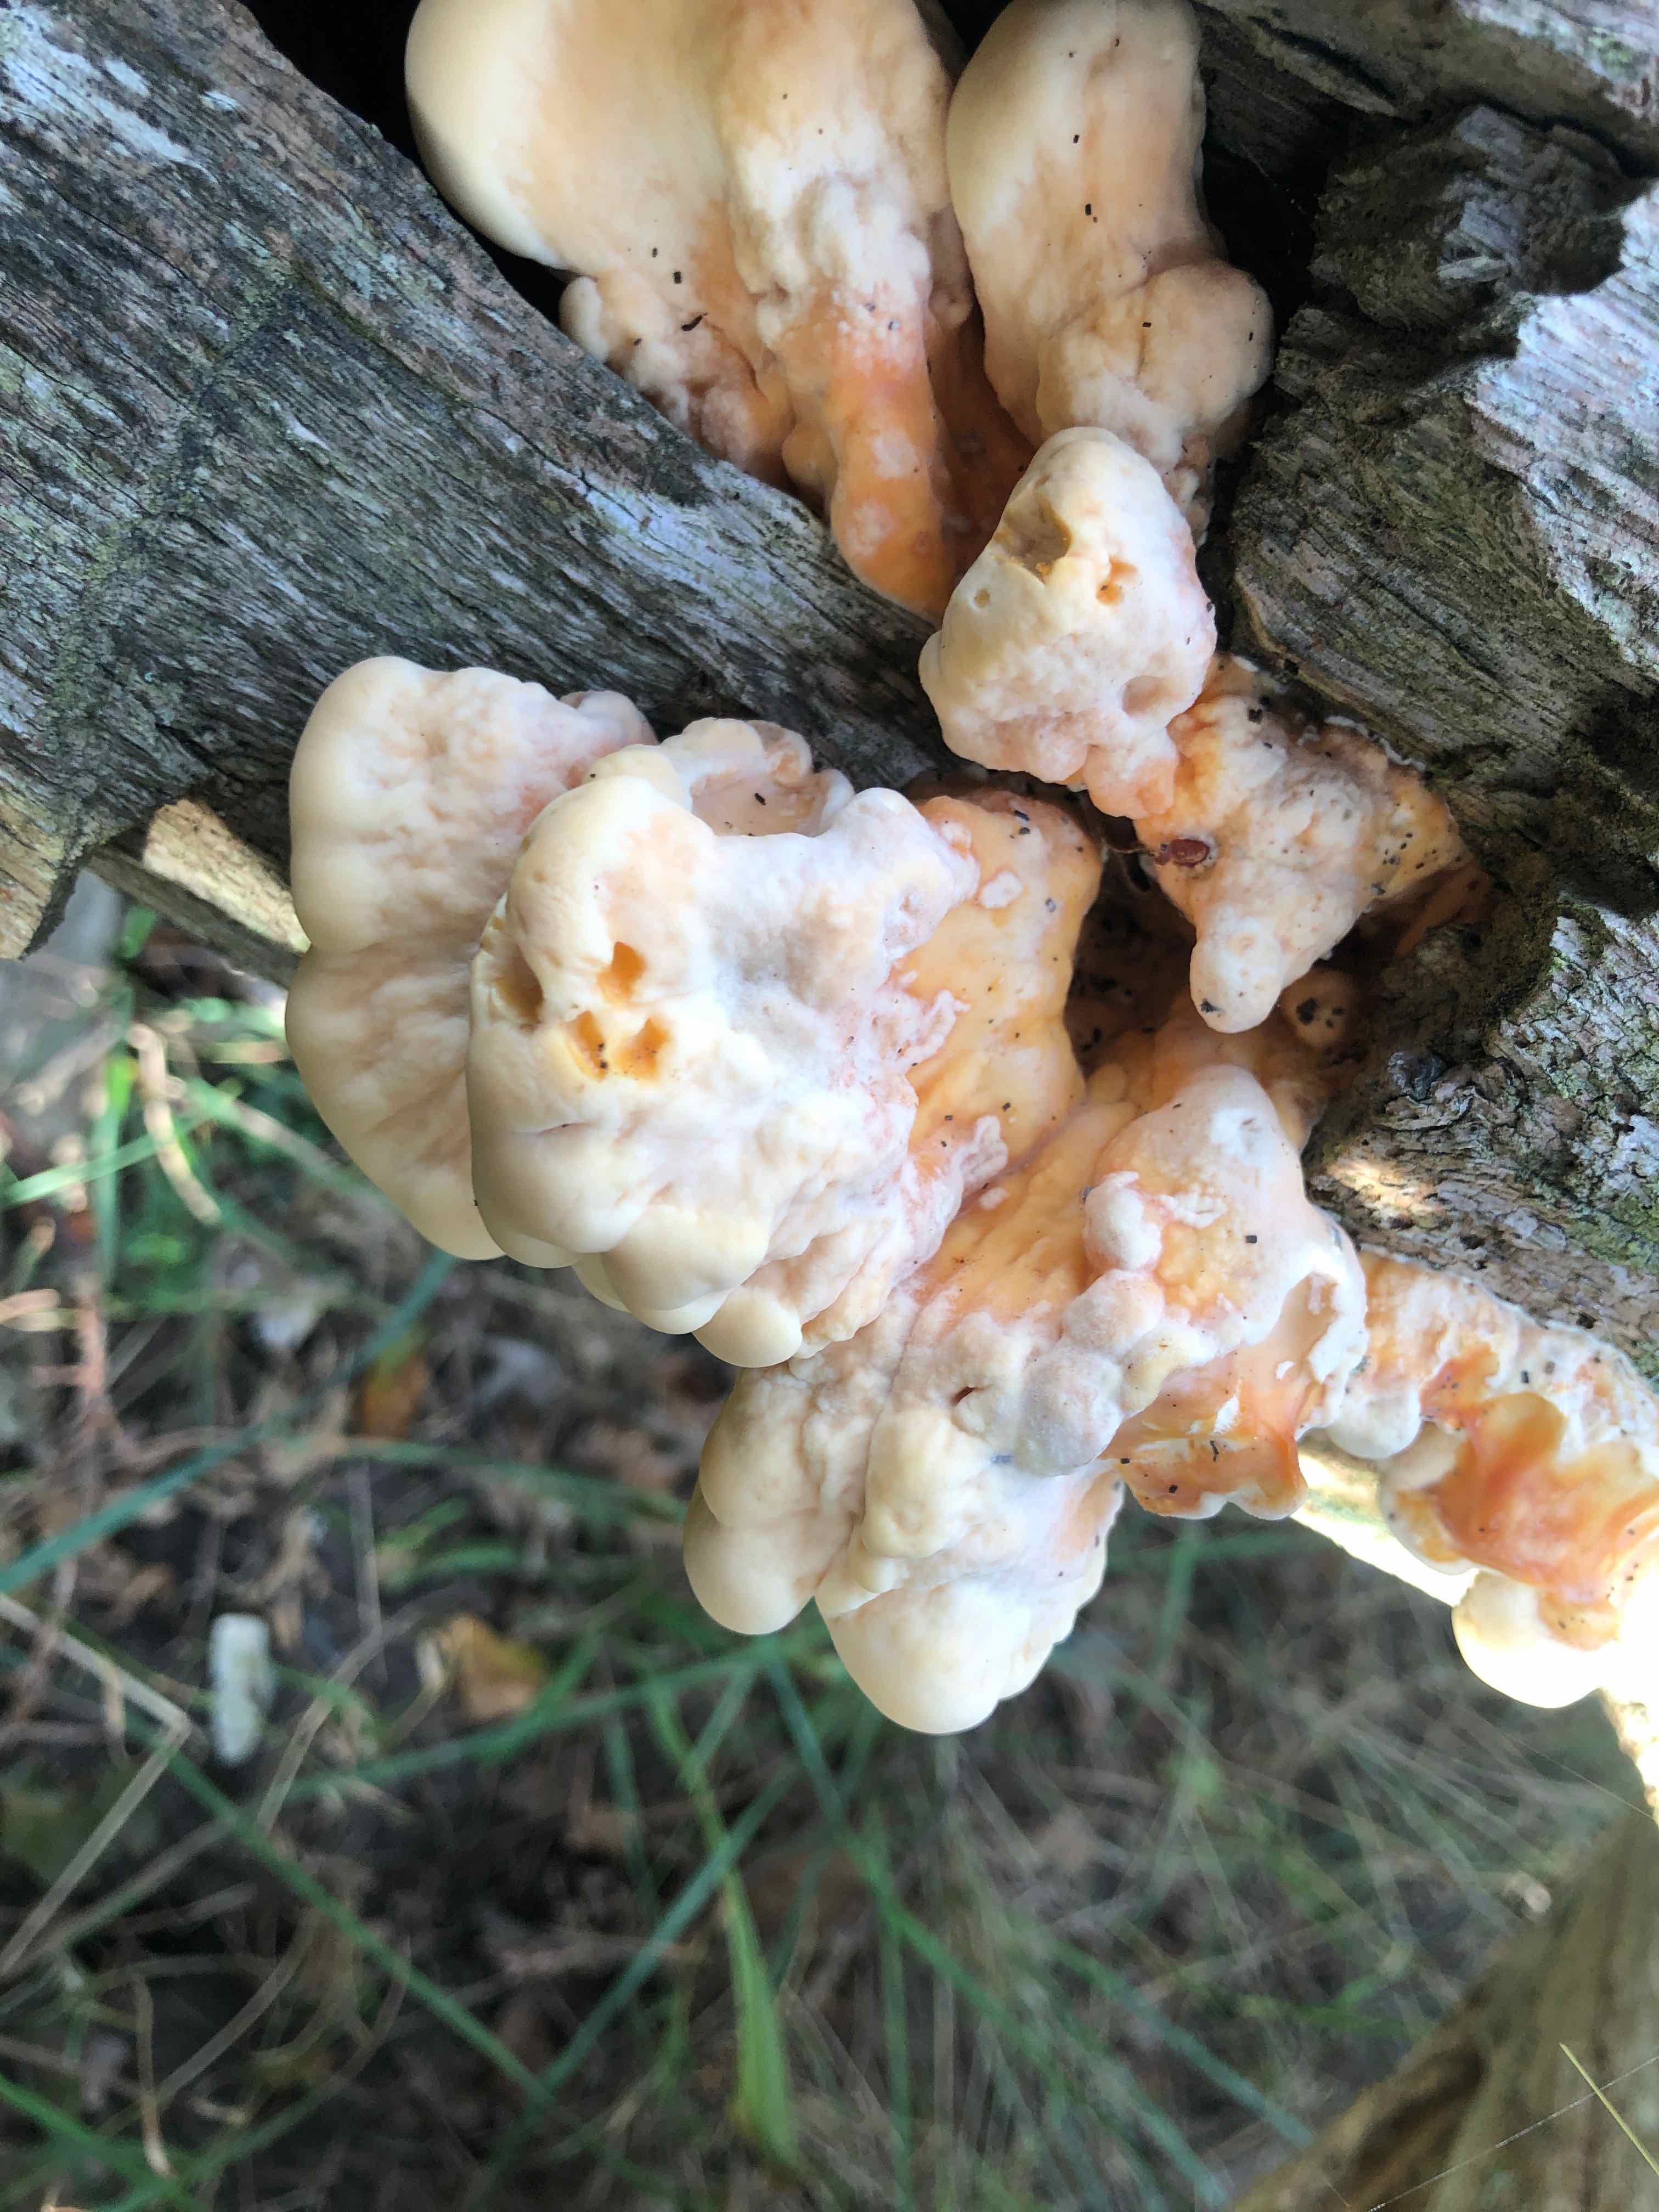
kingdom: Fungi
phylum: Basidiomycota
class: Agaricomycetes
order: Polyporales
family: Laetiporaceae
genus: Laetiporus
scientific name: Laetiporus sulphureus
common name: svovlporesvamp
